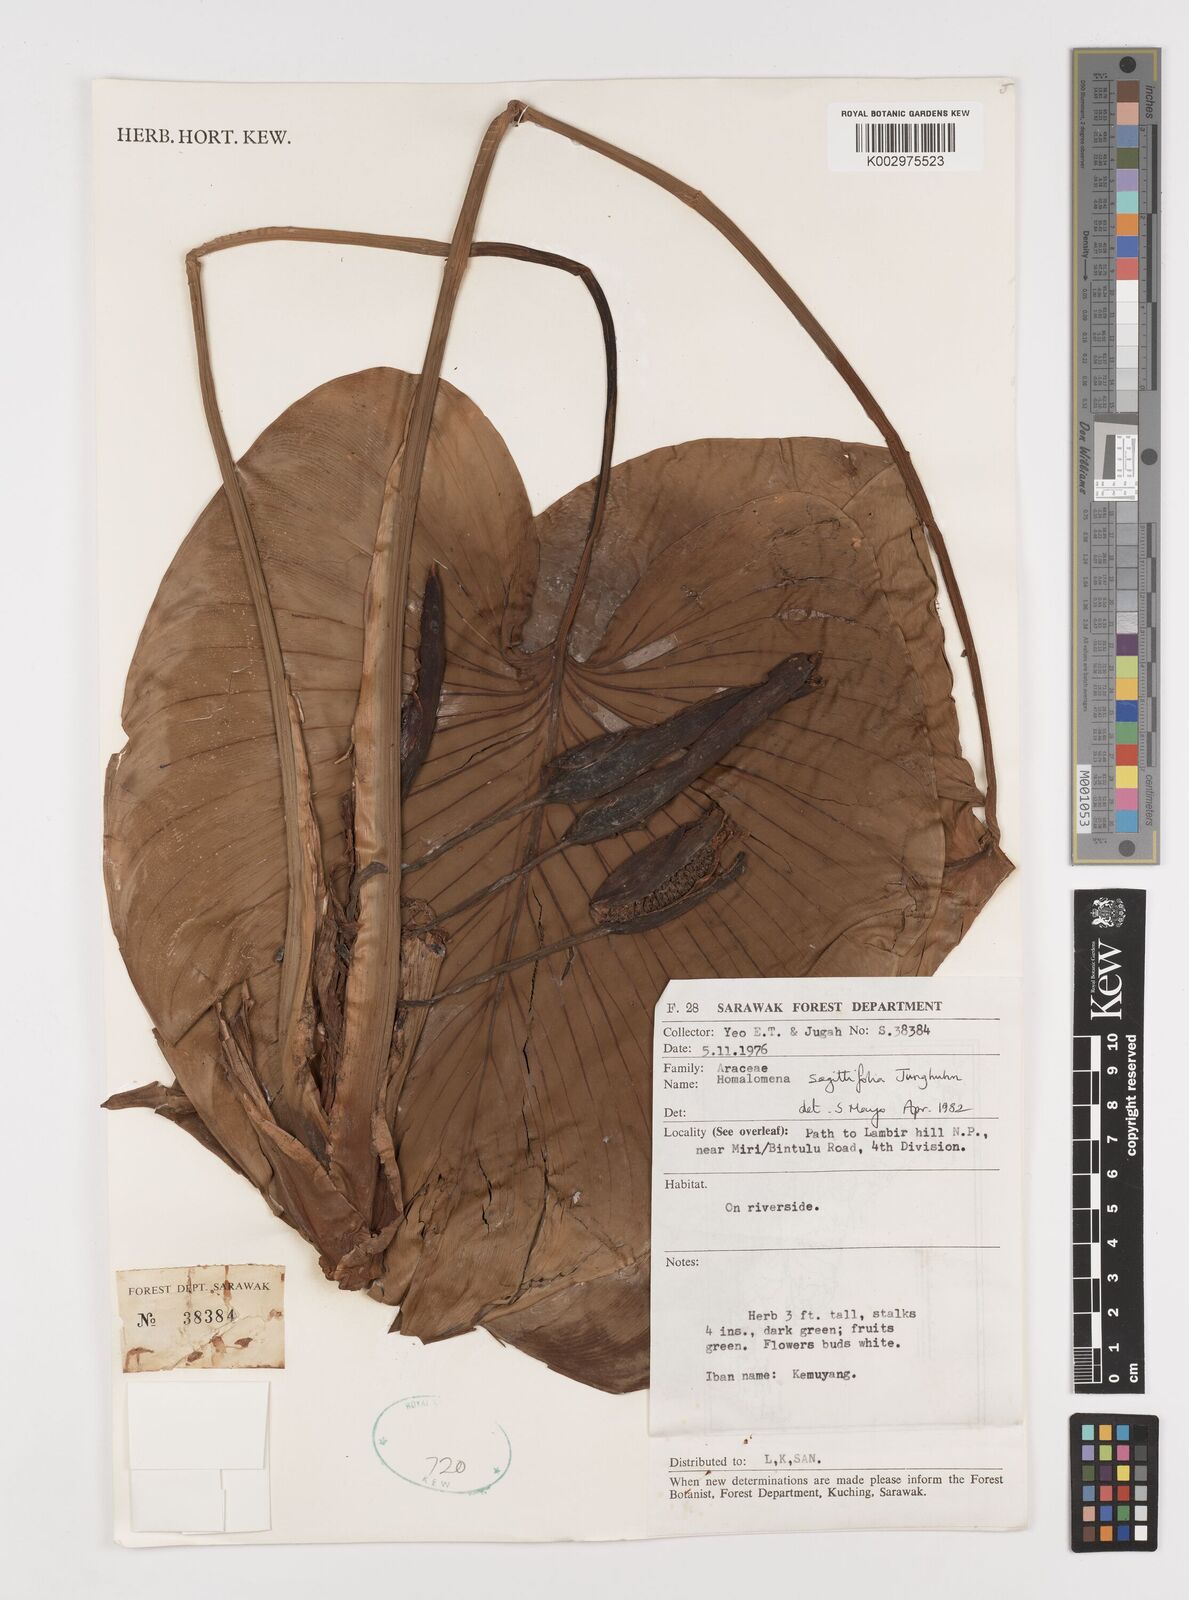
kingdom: Plantae
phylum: Tracheophyta
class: Liliopsida
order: Alismatales
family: Araceae
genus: Homalomena
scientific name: Homalomena rostrata
